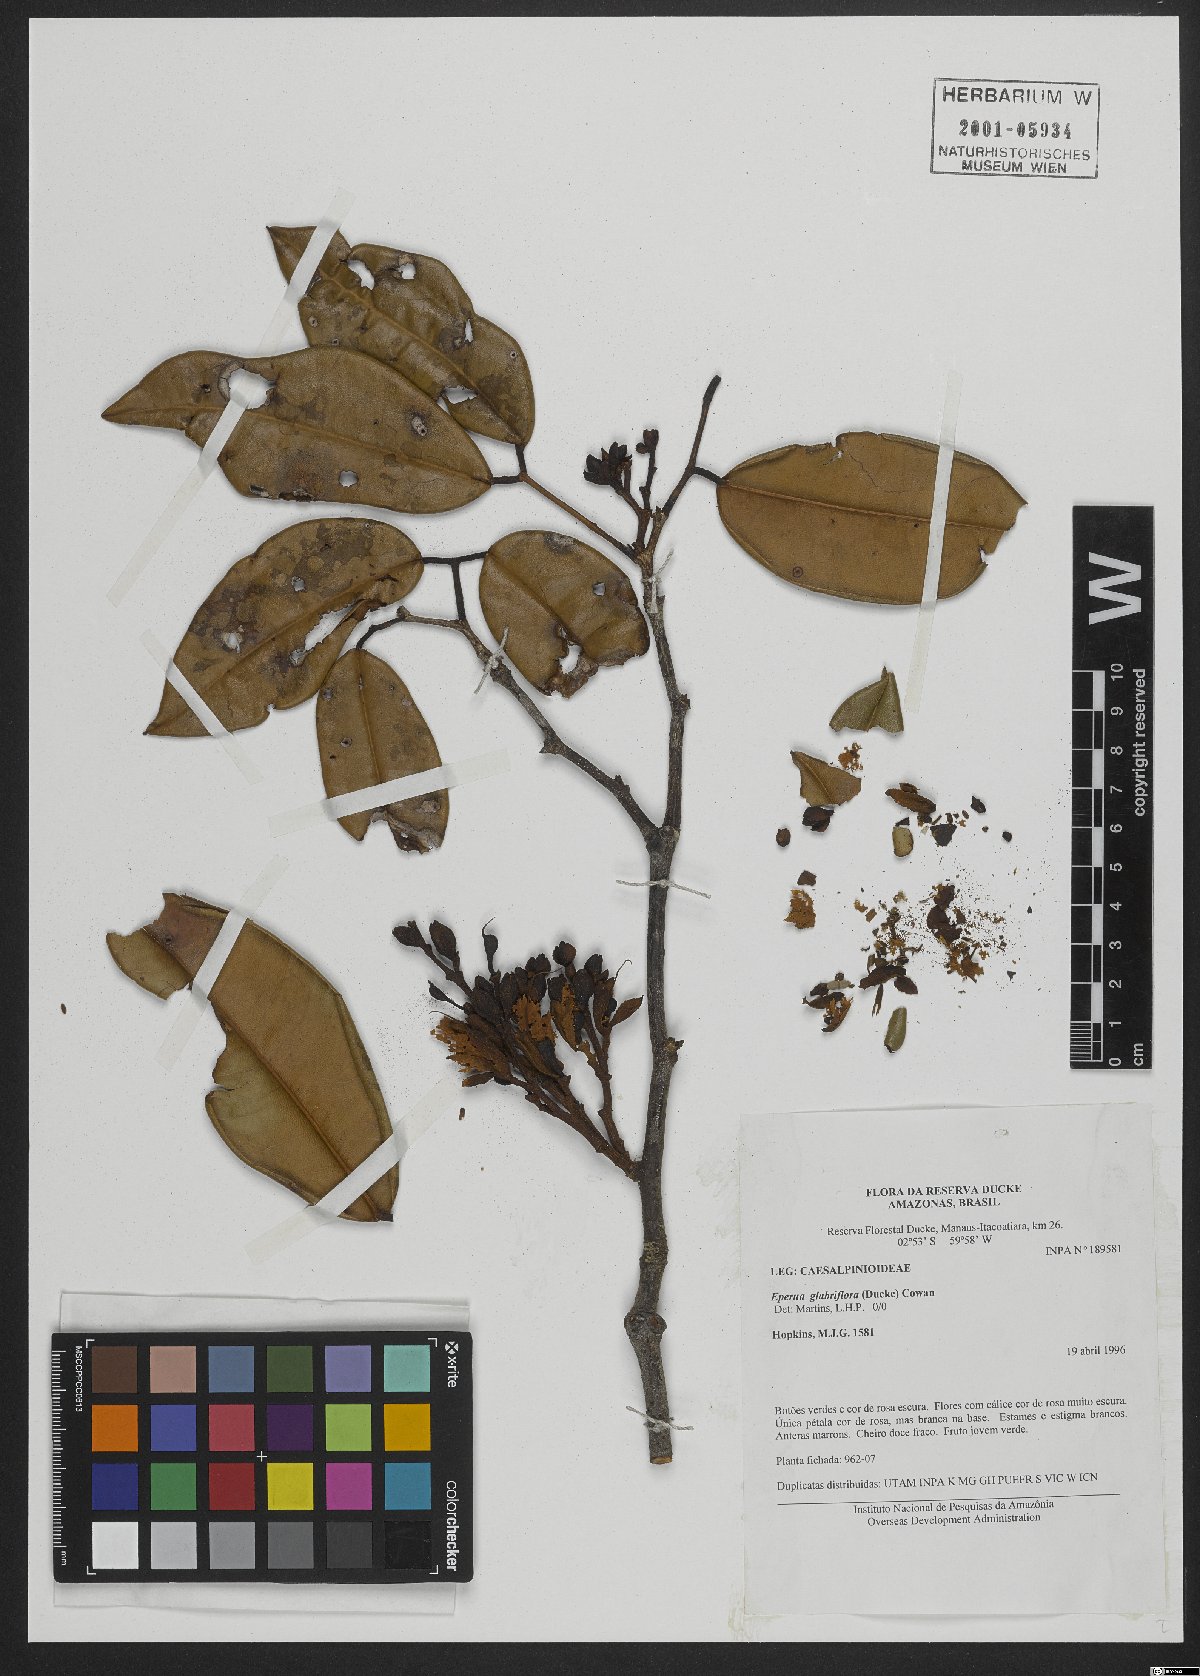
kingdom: Plantae
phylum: Tracheophyta
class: Magnoliopsida
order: Fabales
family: Fabaceae
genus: Eperua
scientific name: Eperua glabriflora
